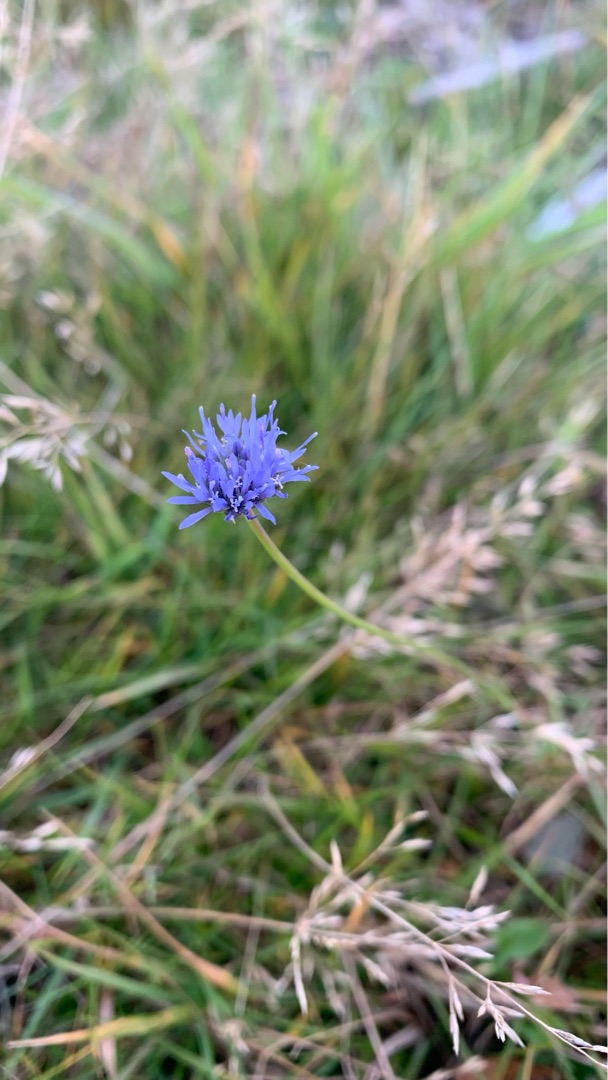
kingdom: Plantae
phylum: Tracheophyta
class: Magnoliopsida
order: Asterales
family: Campanulaceae
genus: Jasione
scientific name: Jasione montana
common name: Blåmunke
